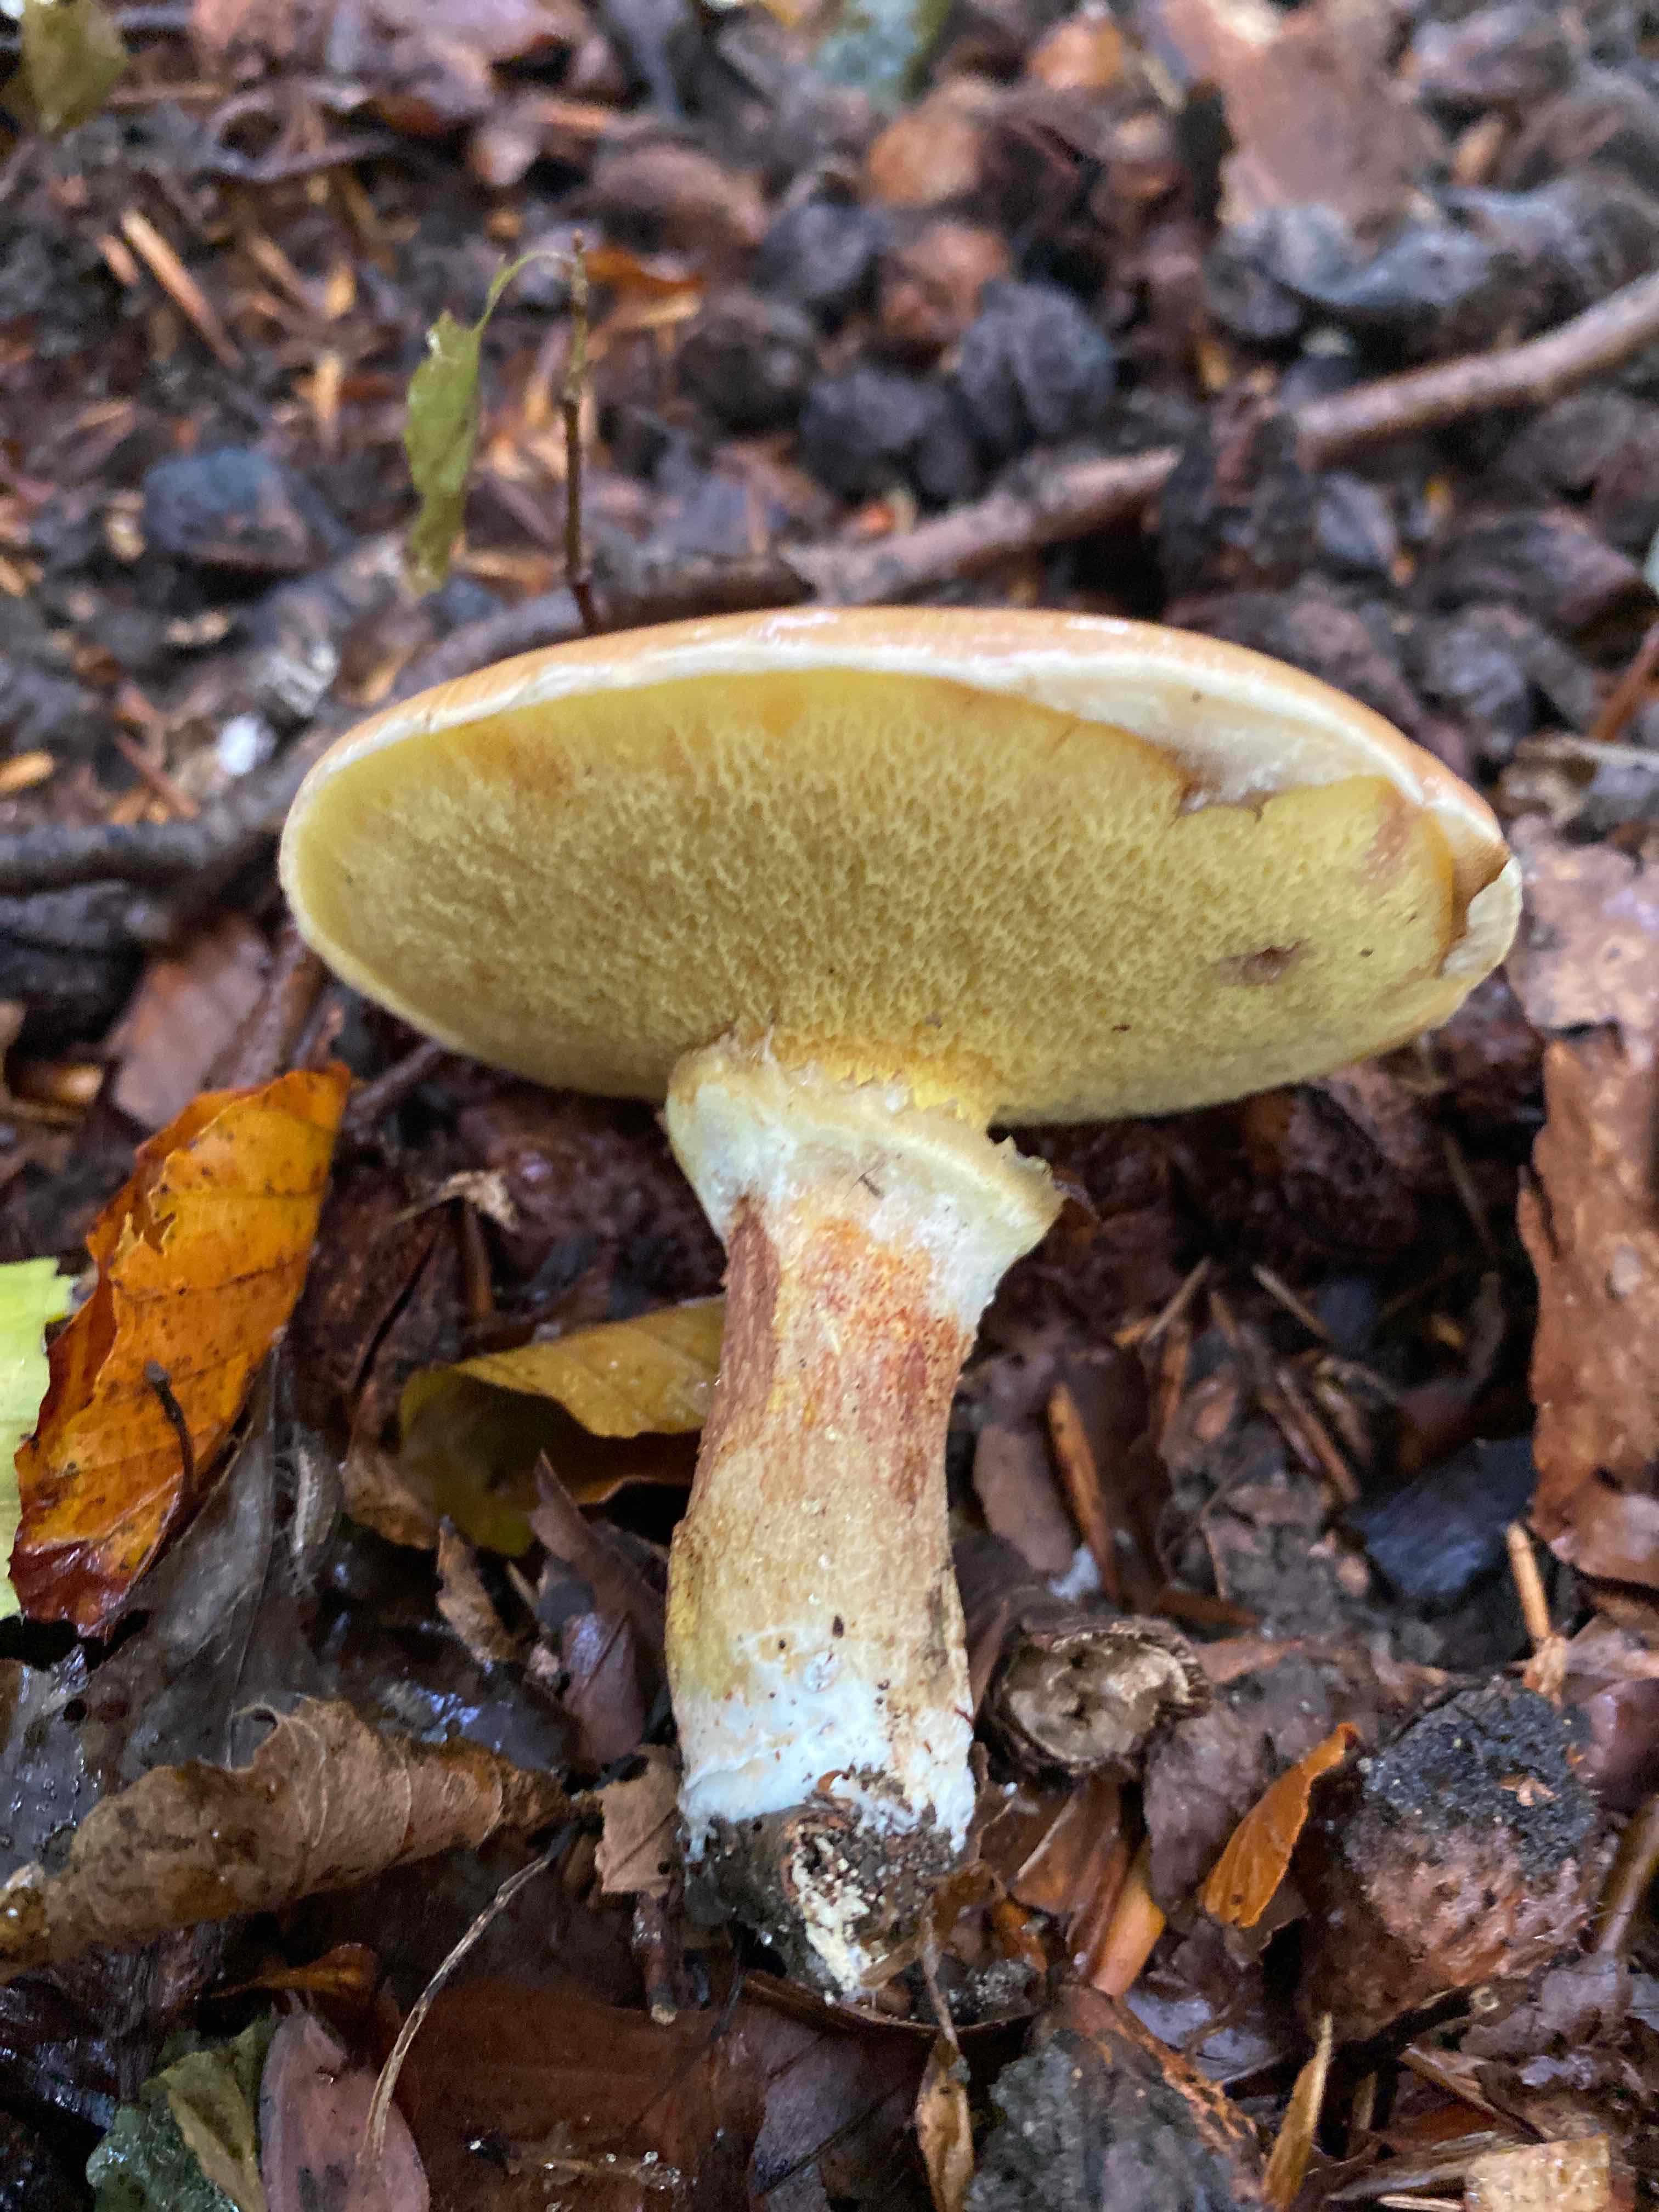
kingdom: Fungi
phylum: Basidiomycota
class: Agaricomycetes
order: Boletales
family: Suillaceae
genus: Suillus
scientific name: Suillus grevillei
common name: lærke-slimrørhat
